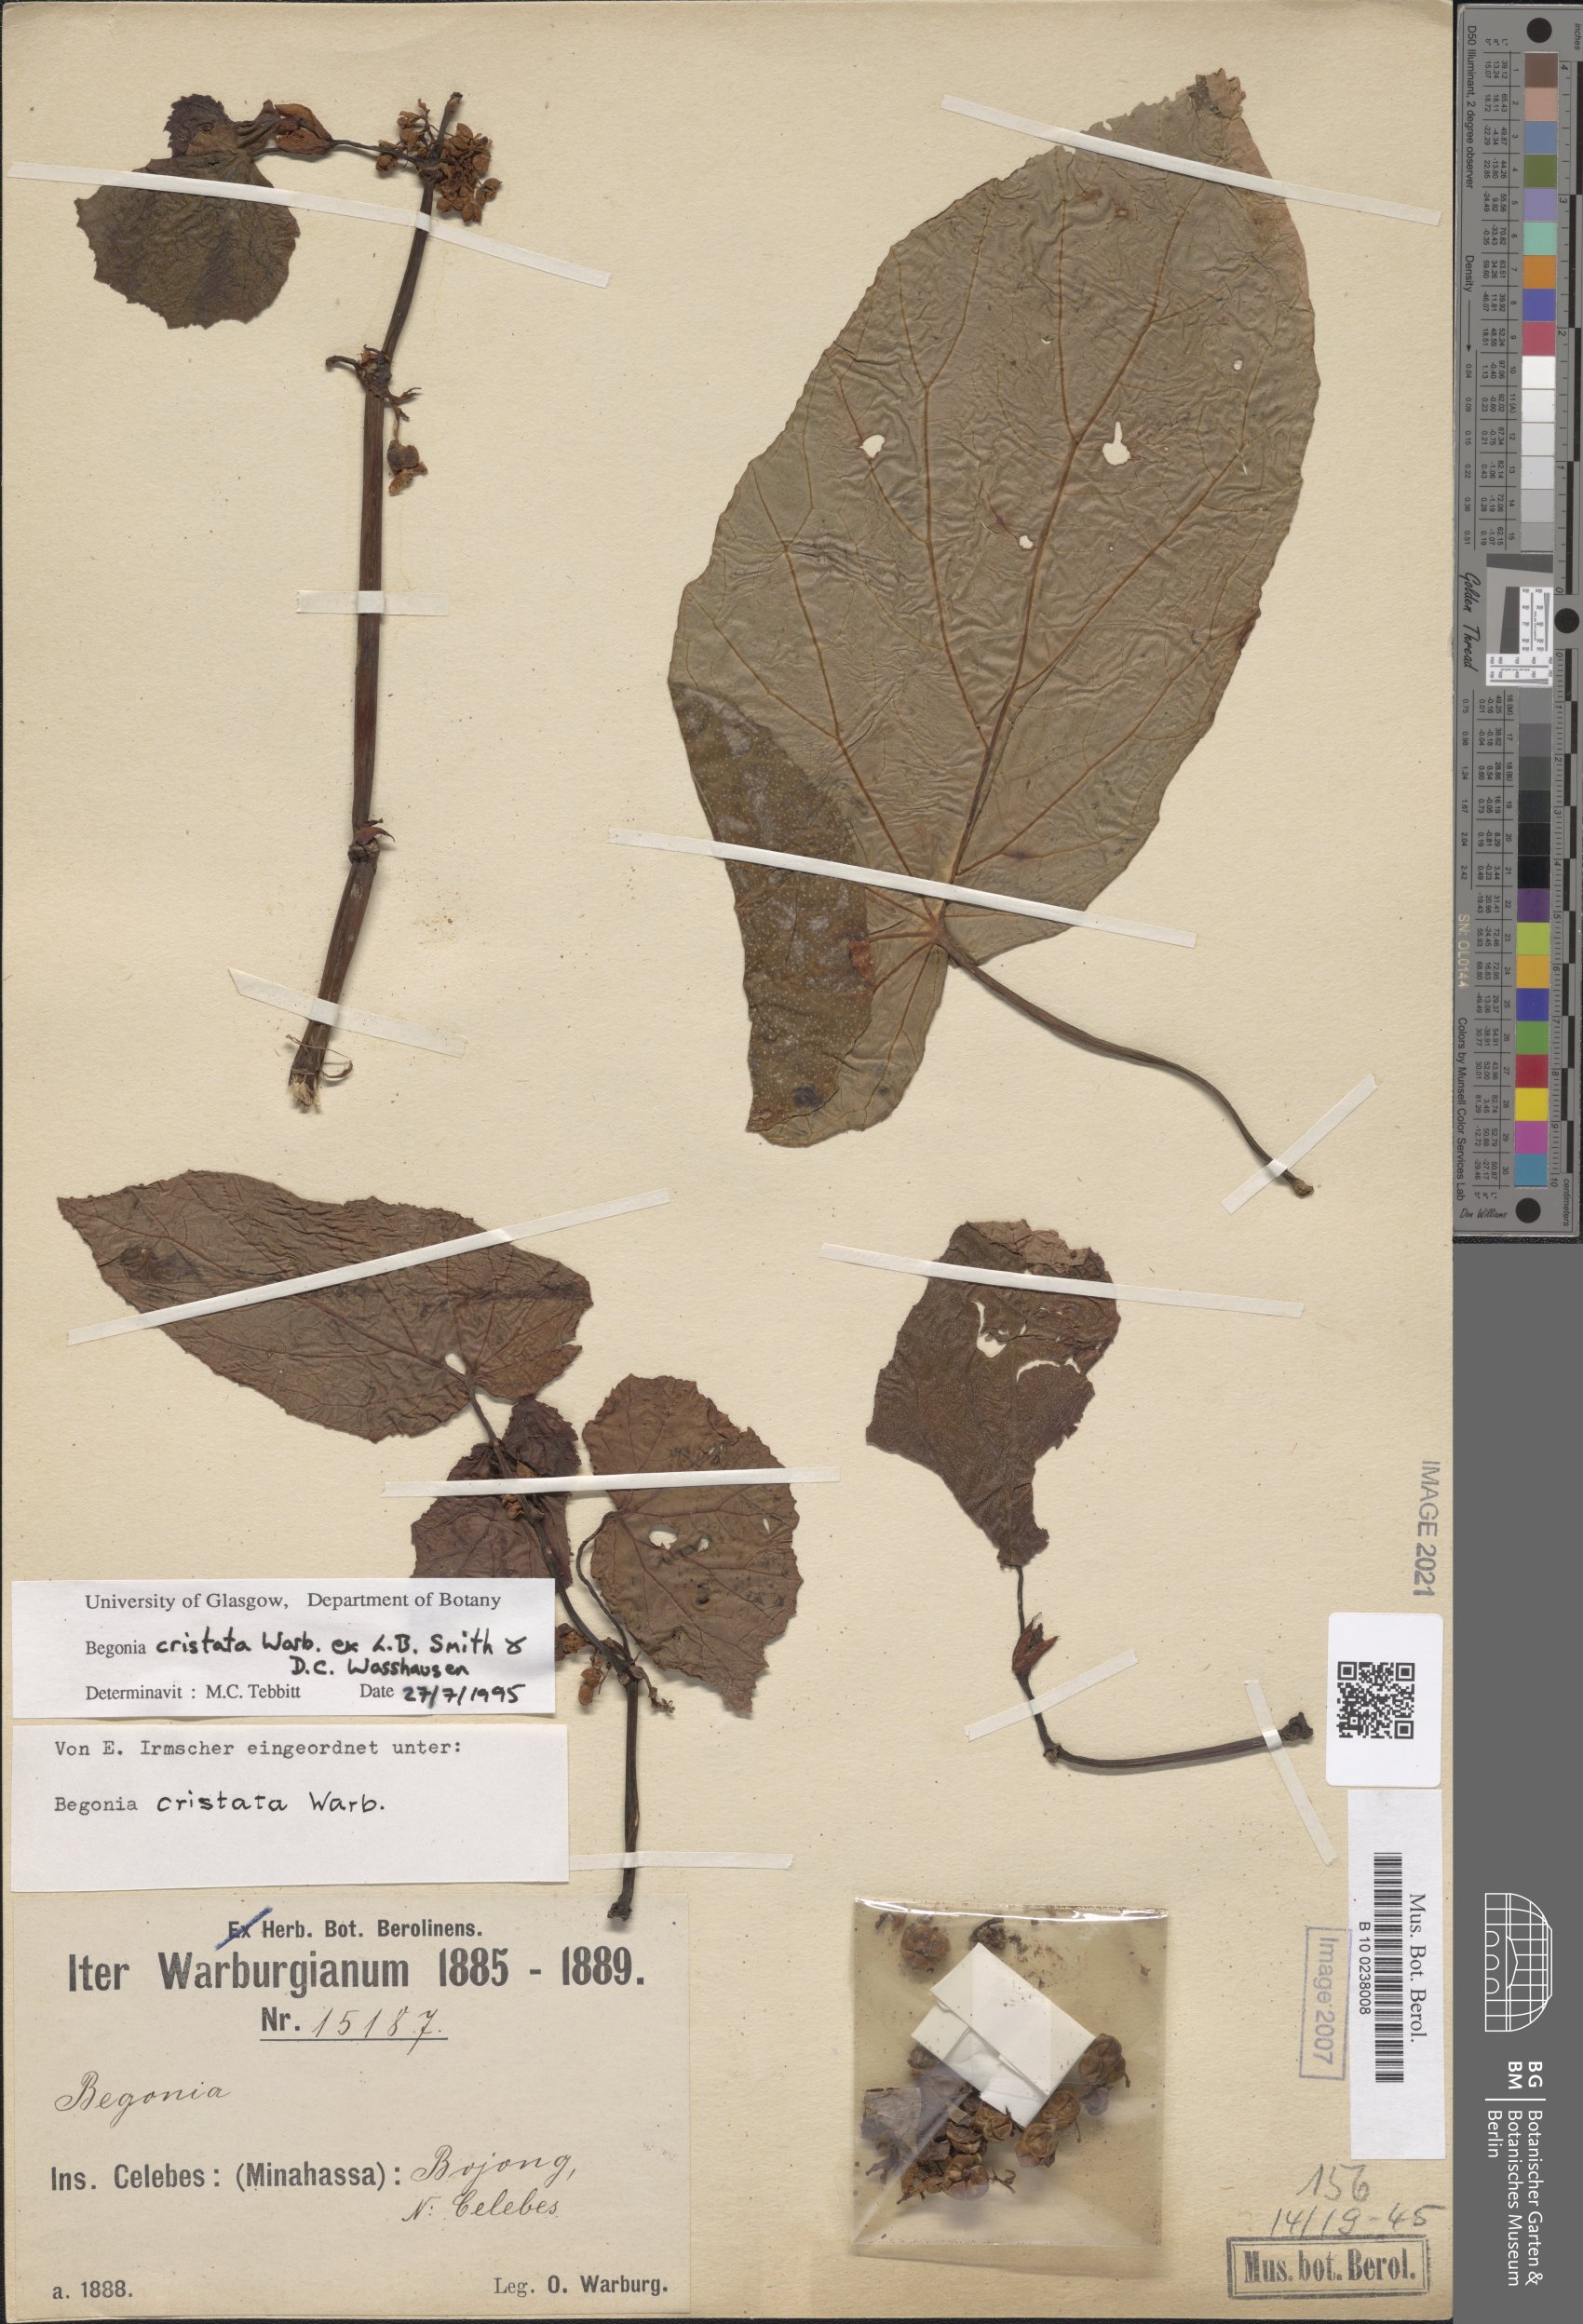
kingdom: Plantae
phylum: Tracheophyta
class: Magnoliopsida
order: Cucurbitales
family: Begoniaceae
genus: Begonia
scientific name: Begonia aptera
